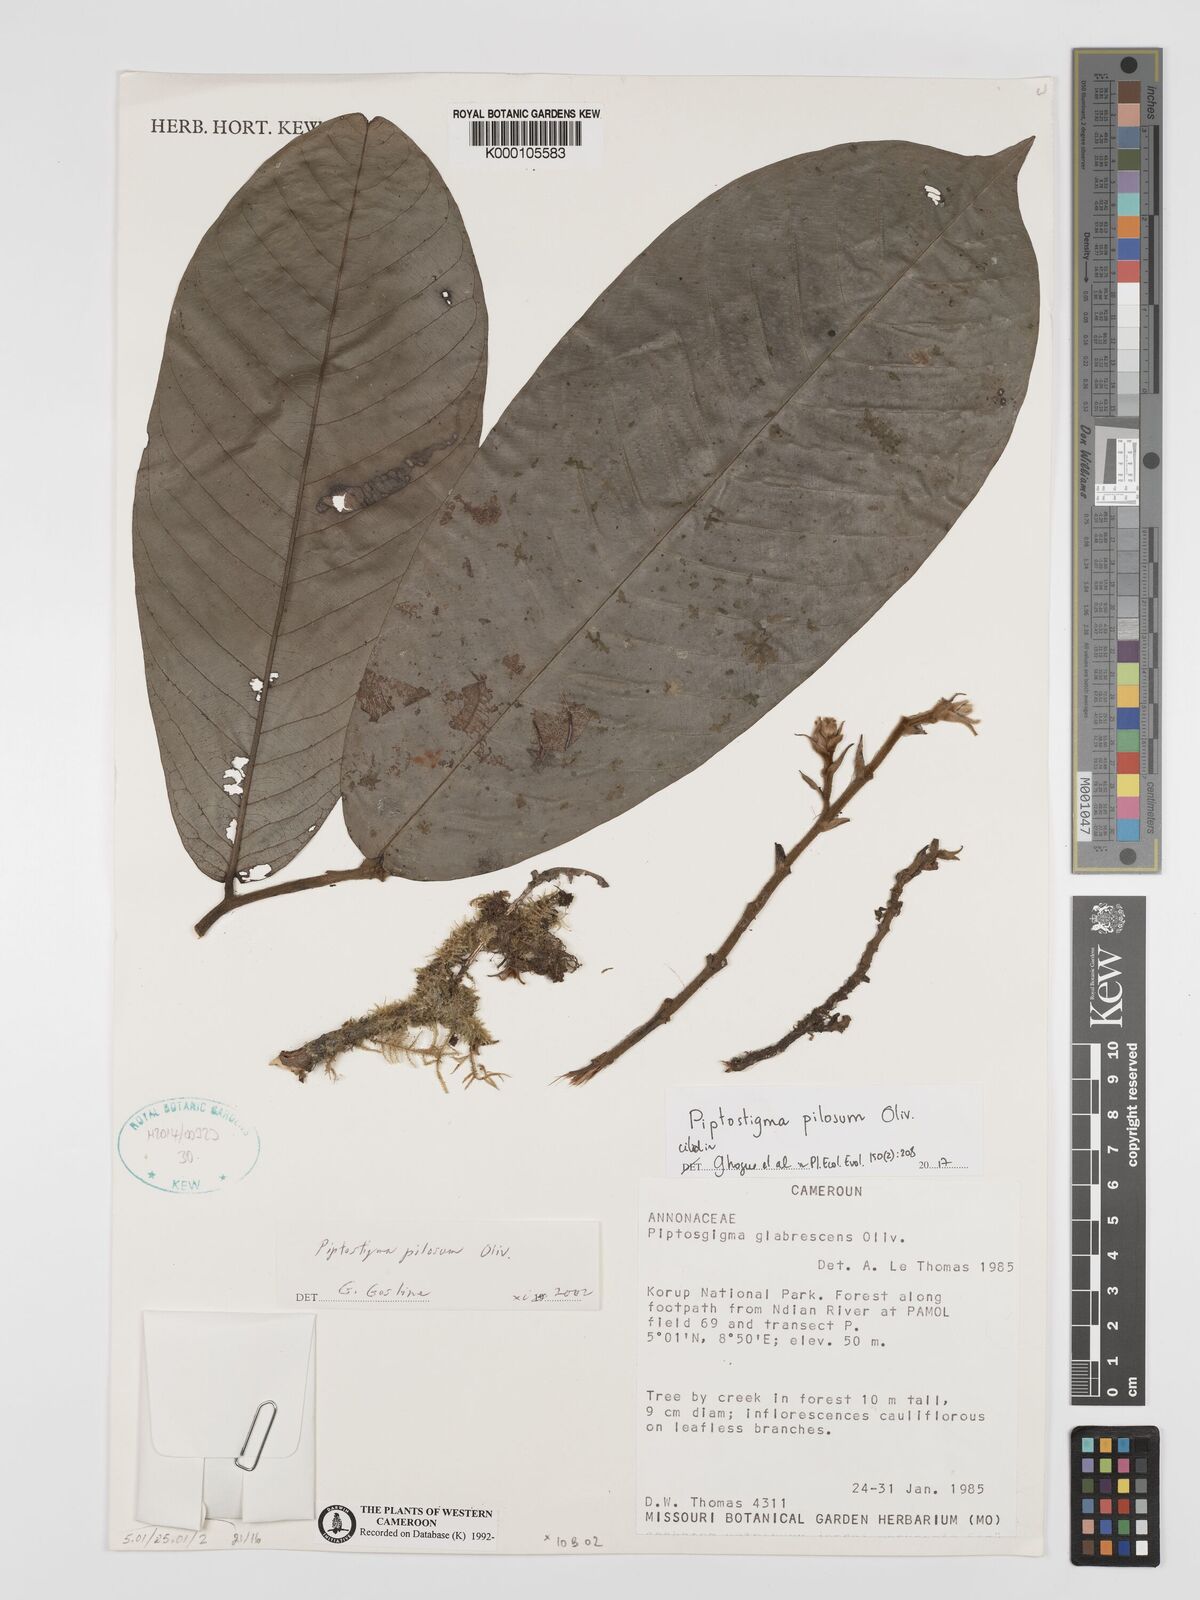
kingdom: Plantae
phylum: Tracheophyta
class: Magnoliopsida
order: Magnoliales
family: Annonaceae
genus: Piptostigma
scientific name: Piptostigma pilosum
